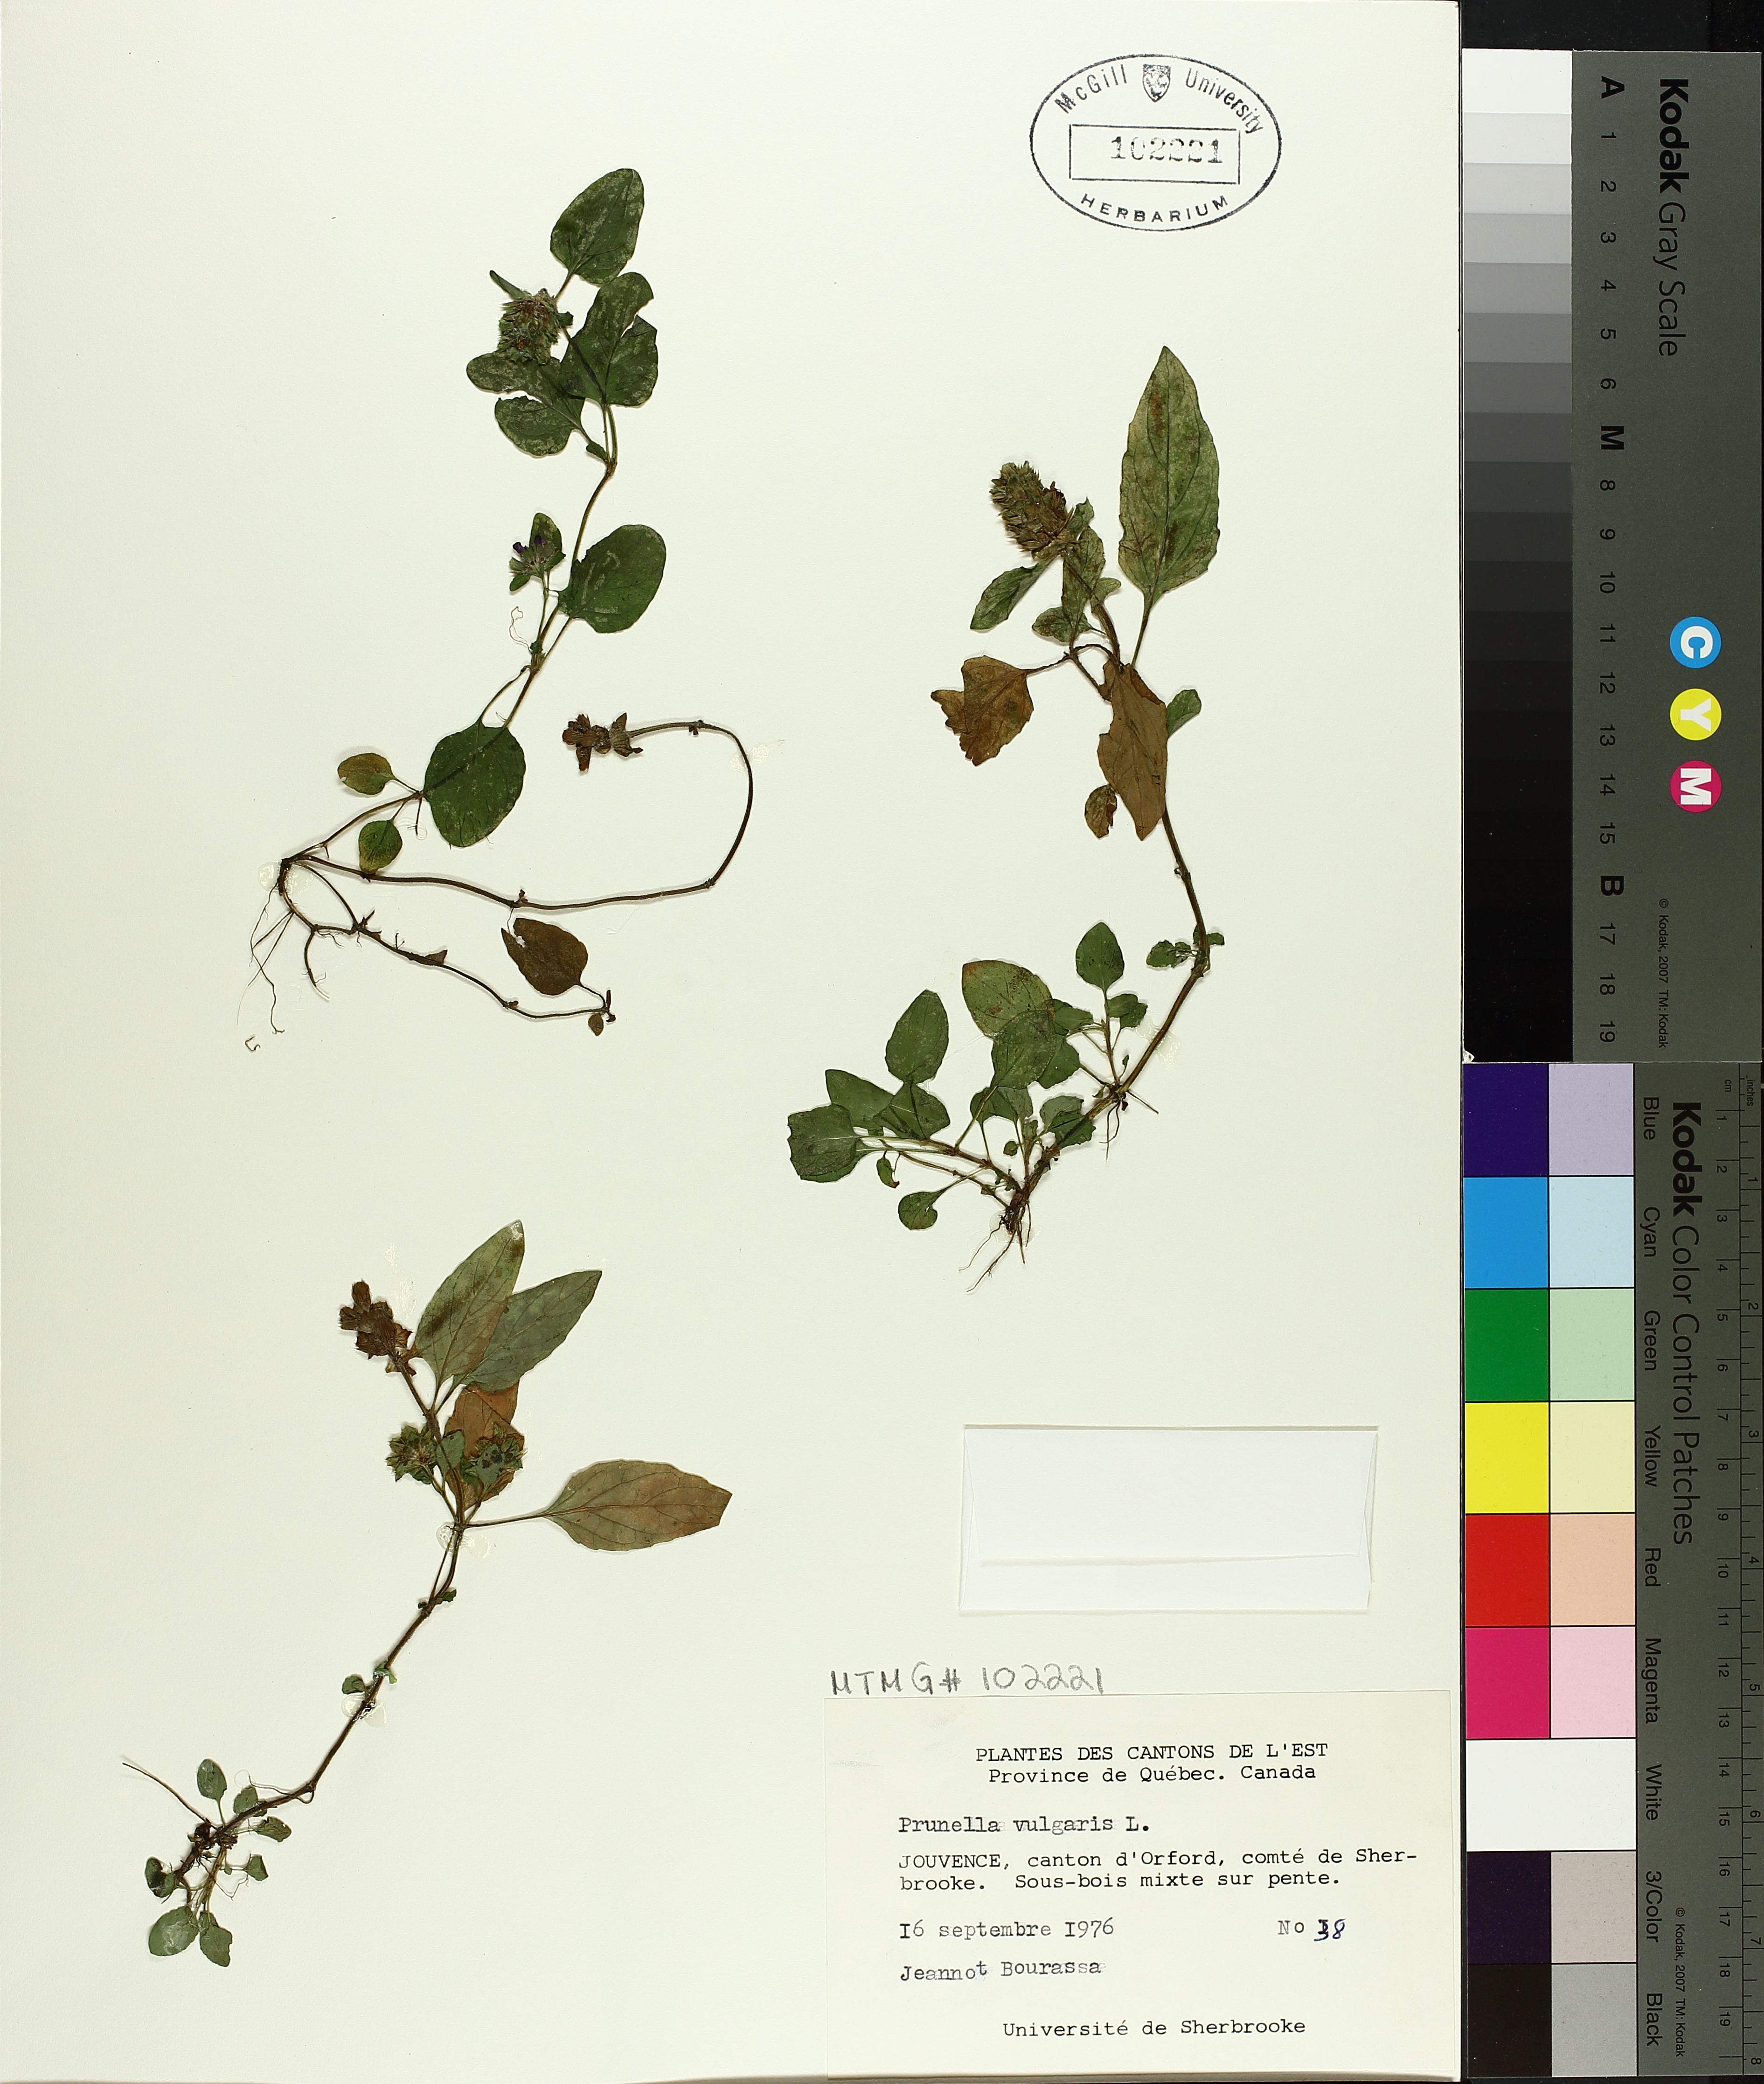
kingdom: Plantae
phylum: Tracheophyta
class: Magnoliopsida
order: Lamiales
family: Lamiaceae
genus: Prunella
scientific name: Prunella vulgaris
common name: Heal-all
